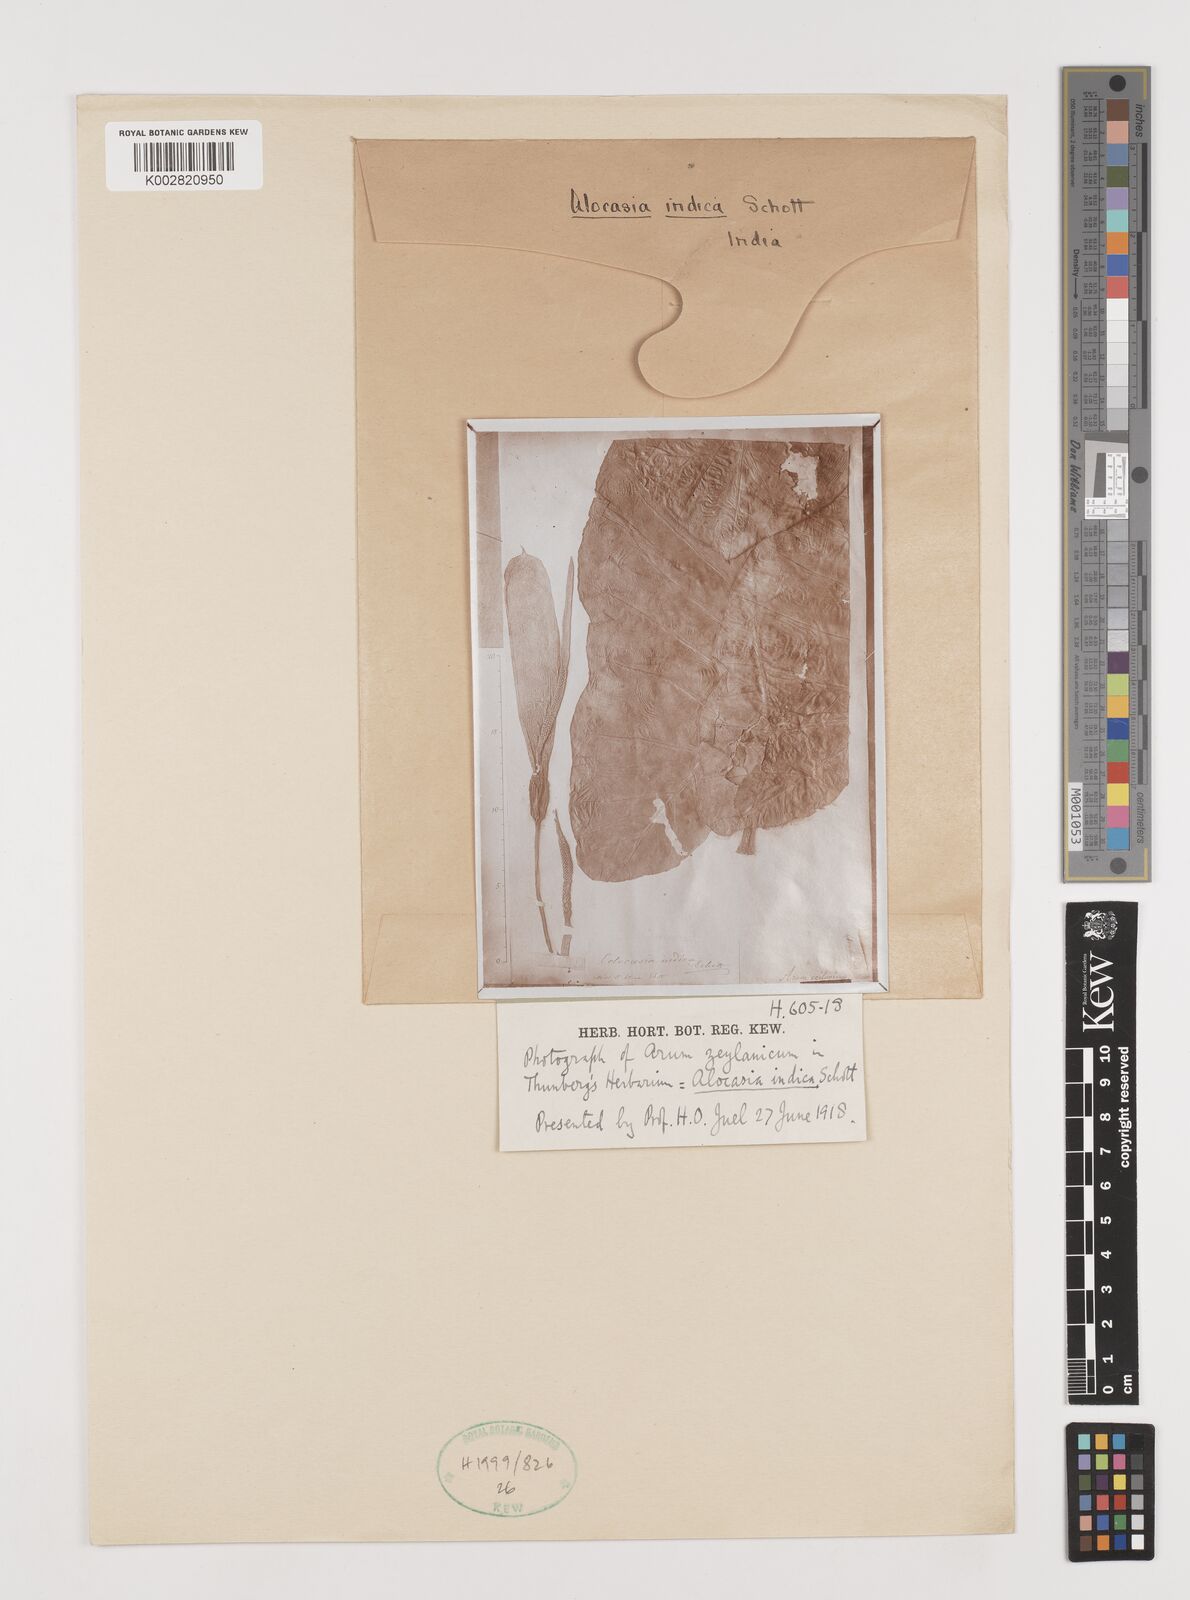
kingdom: Plantae
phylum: Tracheophyta
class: Liliopsida
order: Alismatales
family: Araceae
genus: Alocasia
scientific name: Alocasia macrorrhizos
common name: Giant taro
